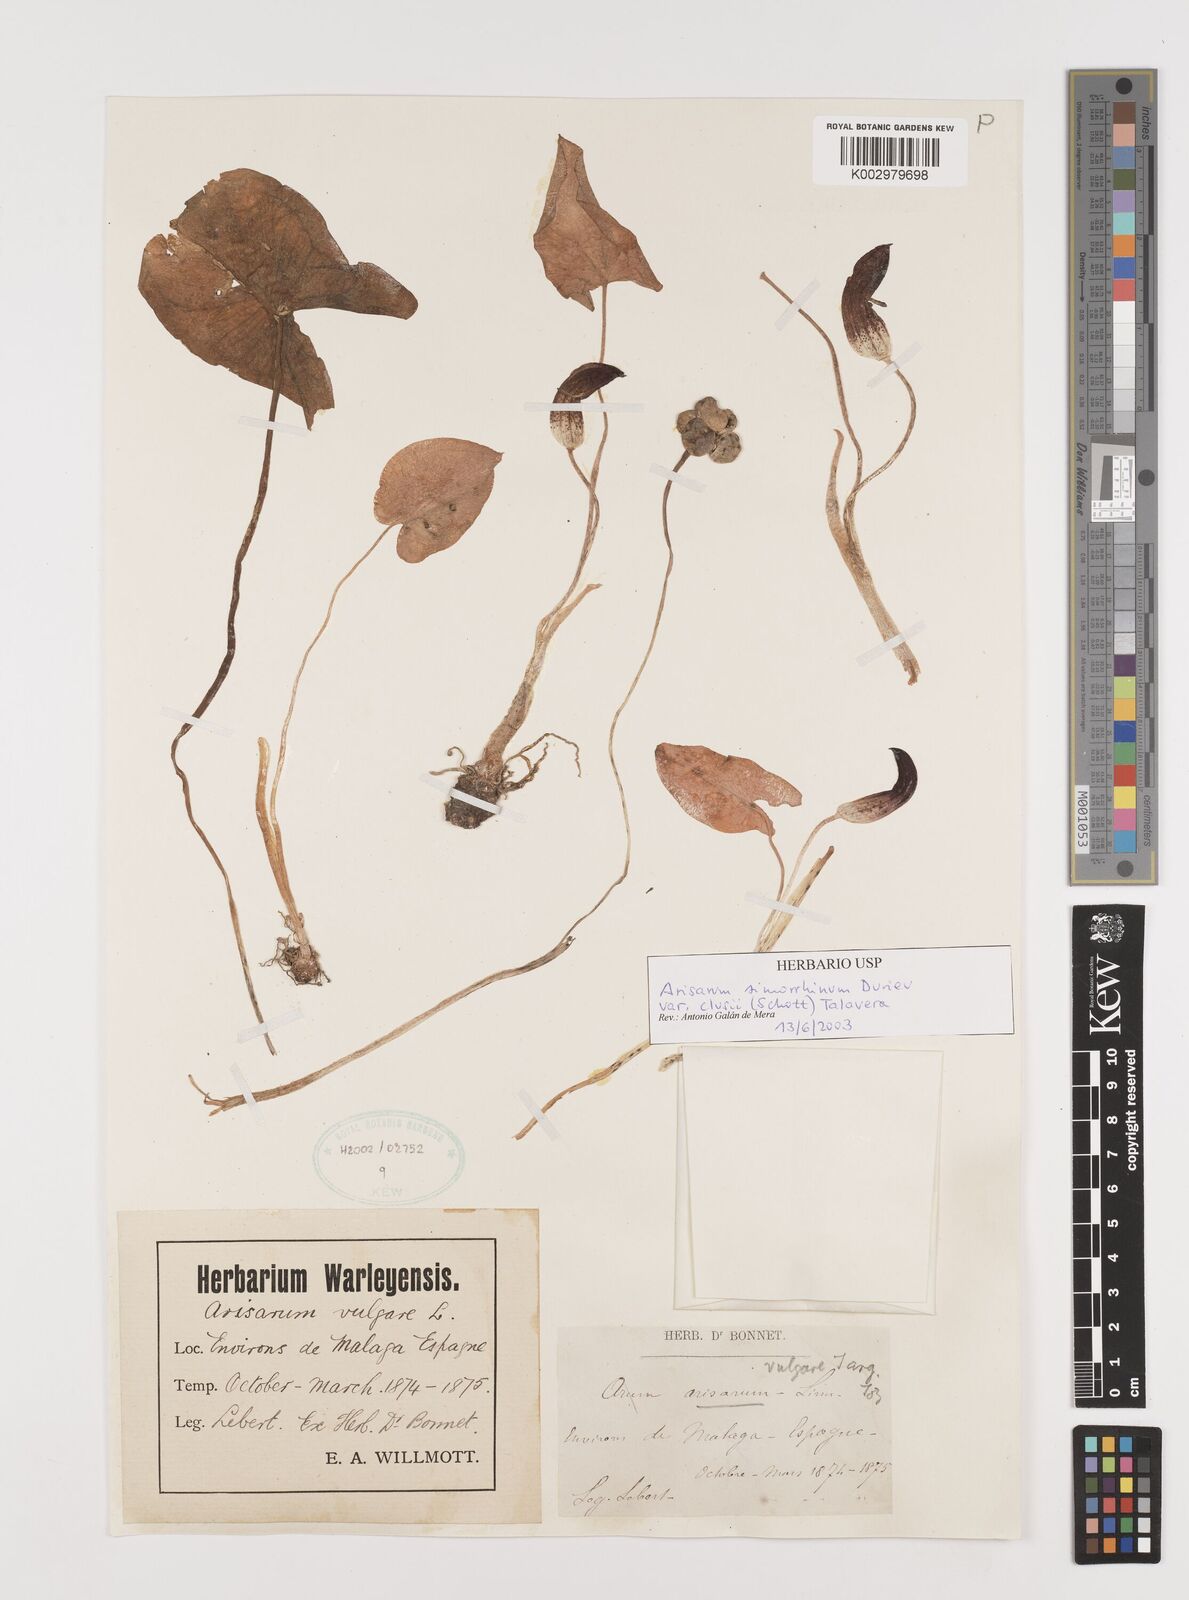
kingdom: Plantae
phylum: Tracheophyta
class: Liliopsida
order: Alismatales
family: Araceae
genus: Arisarum
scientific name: Arisarum simorrhinum
